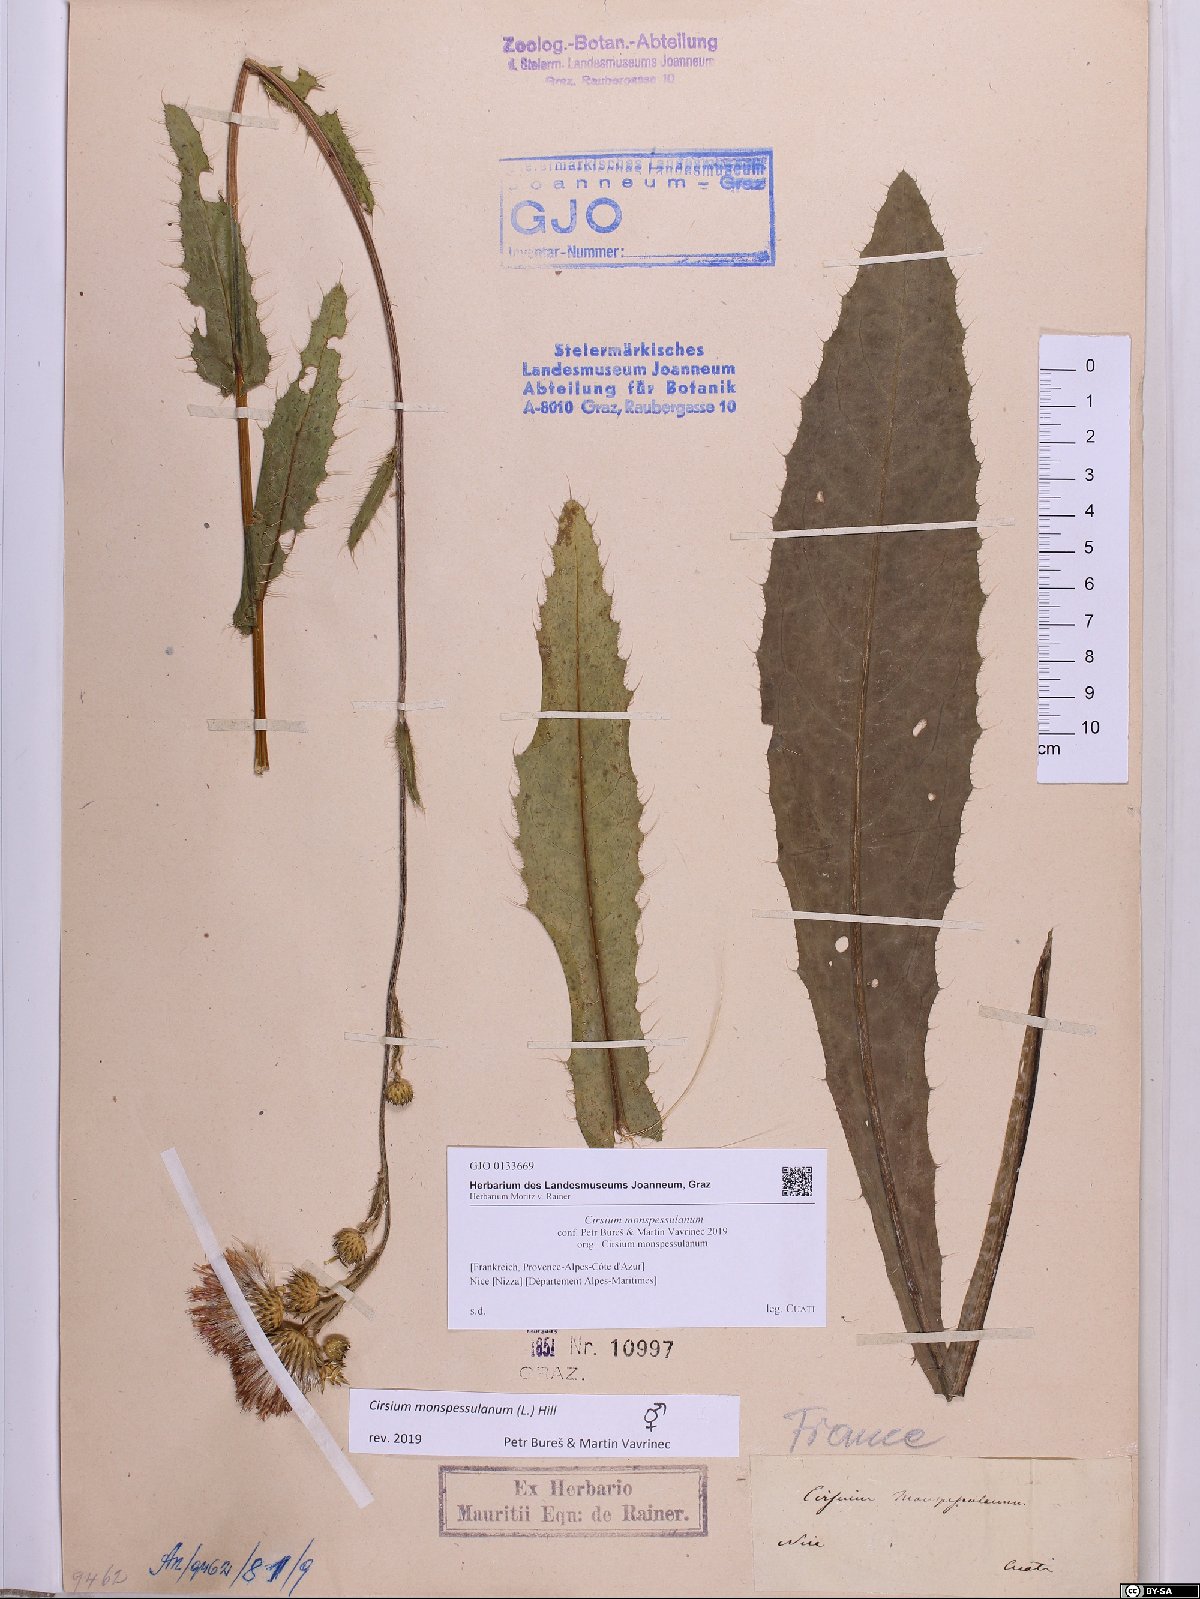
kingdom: Plantae
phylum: Tracheophyta
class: Magnoliopsida
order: Asterales
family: Asteraceae
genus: Cirsium
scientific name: Cirsium monspessulanum
